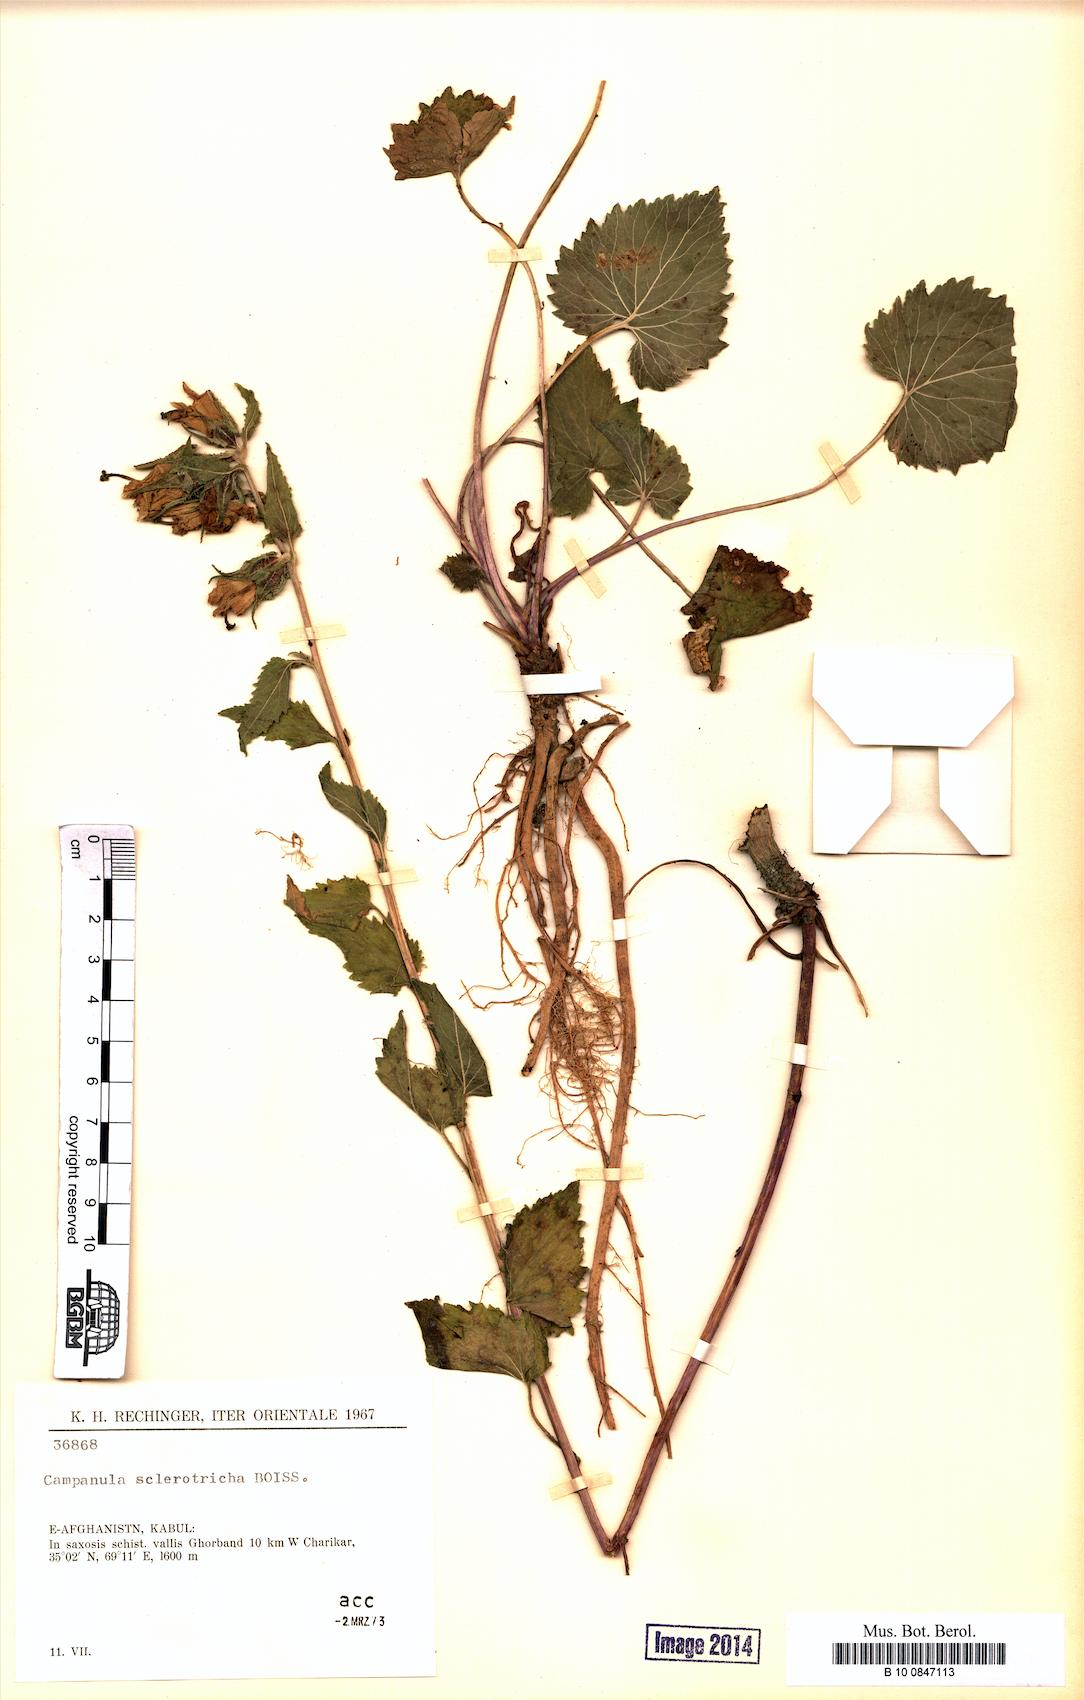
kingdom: Plantae
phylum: Tracheophyta
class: Magnoliopsida
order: Asterales
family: Campanulaceae
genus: Campanula
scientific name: Campanula sclerotricha
